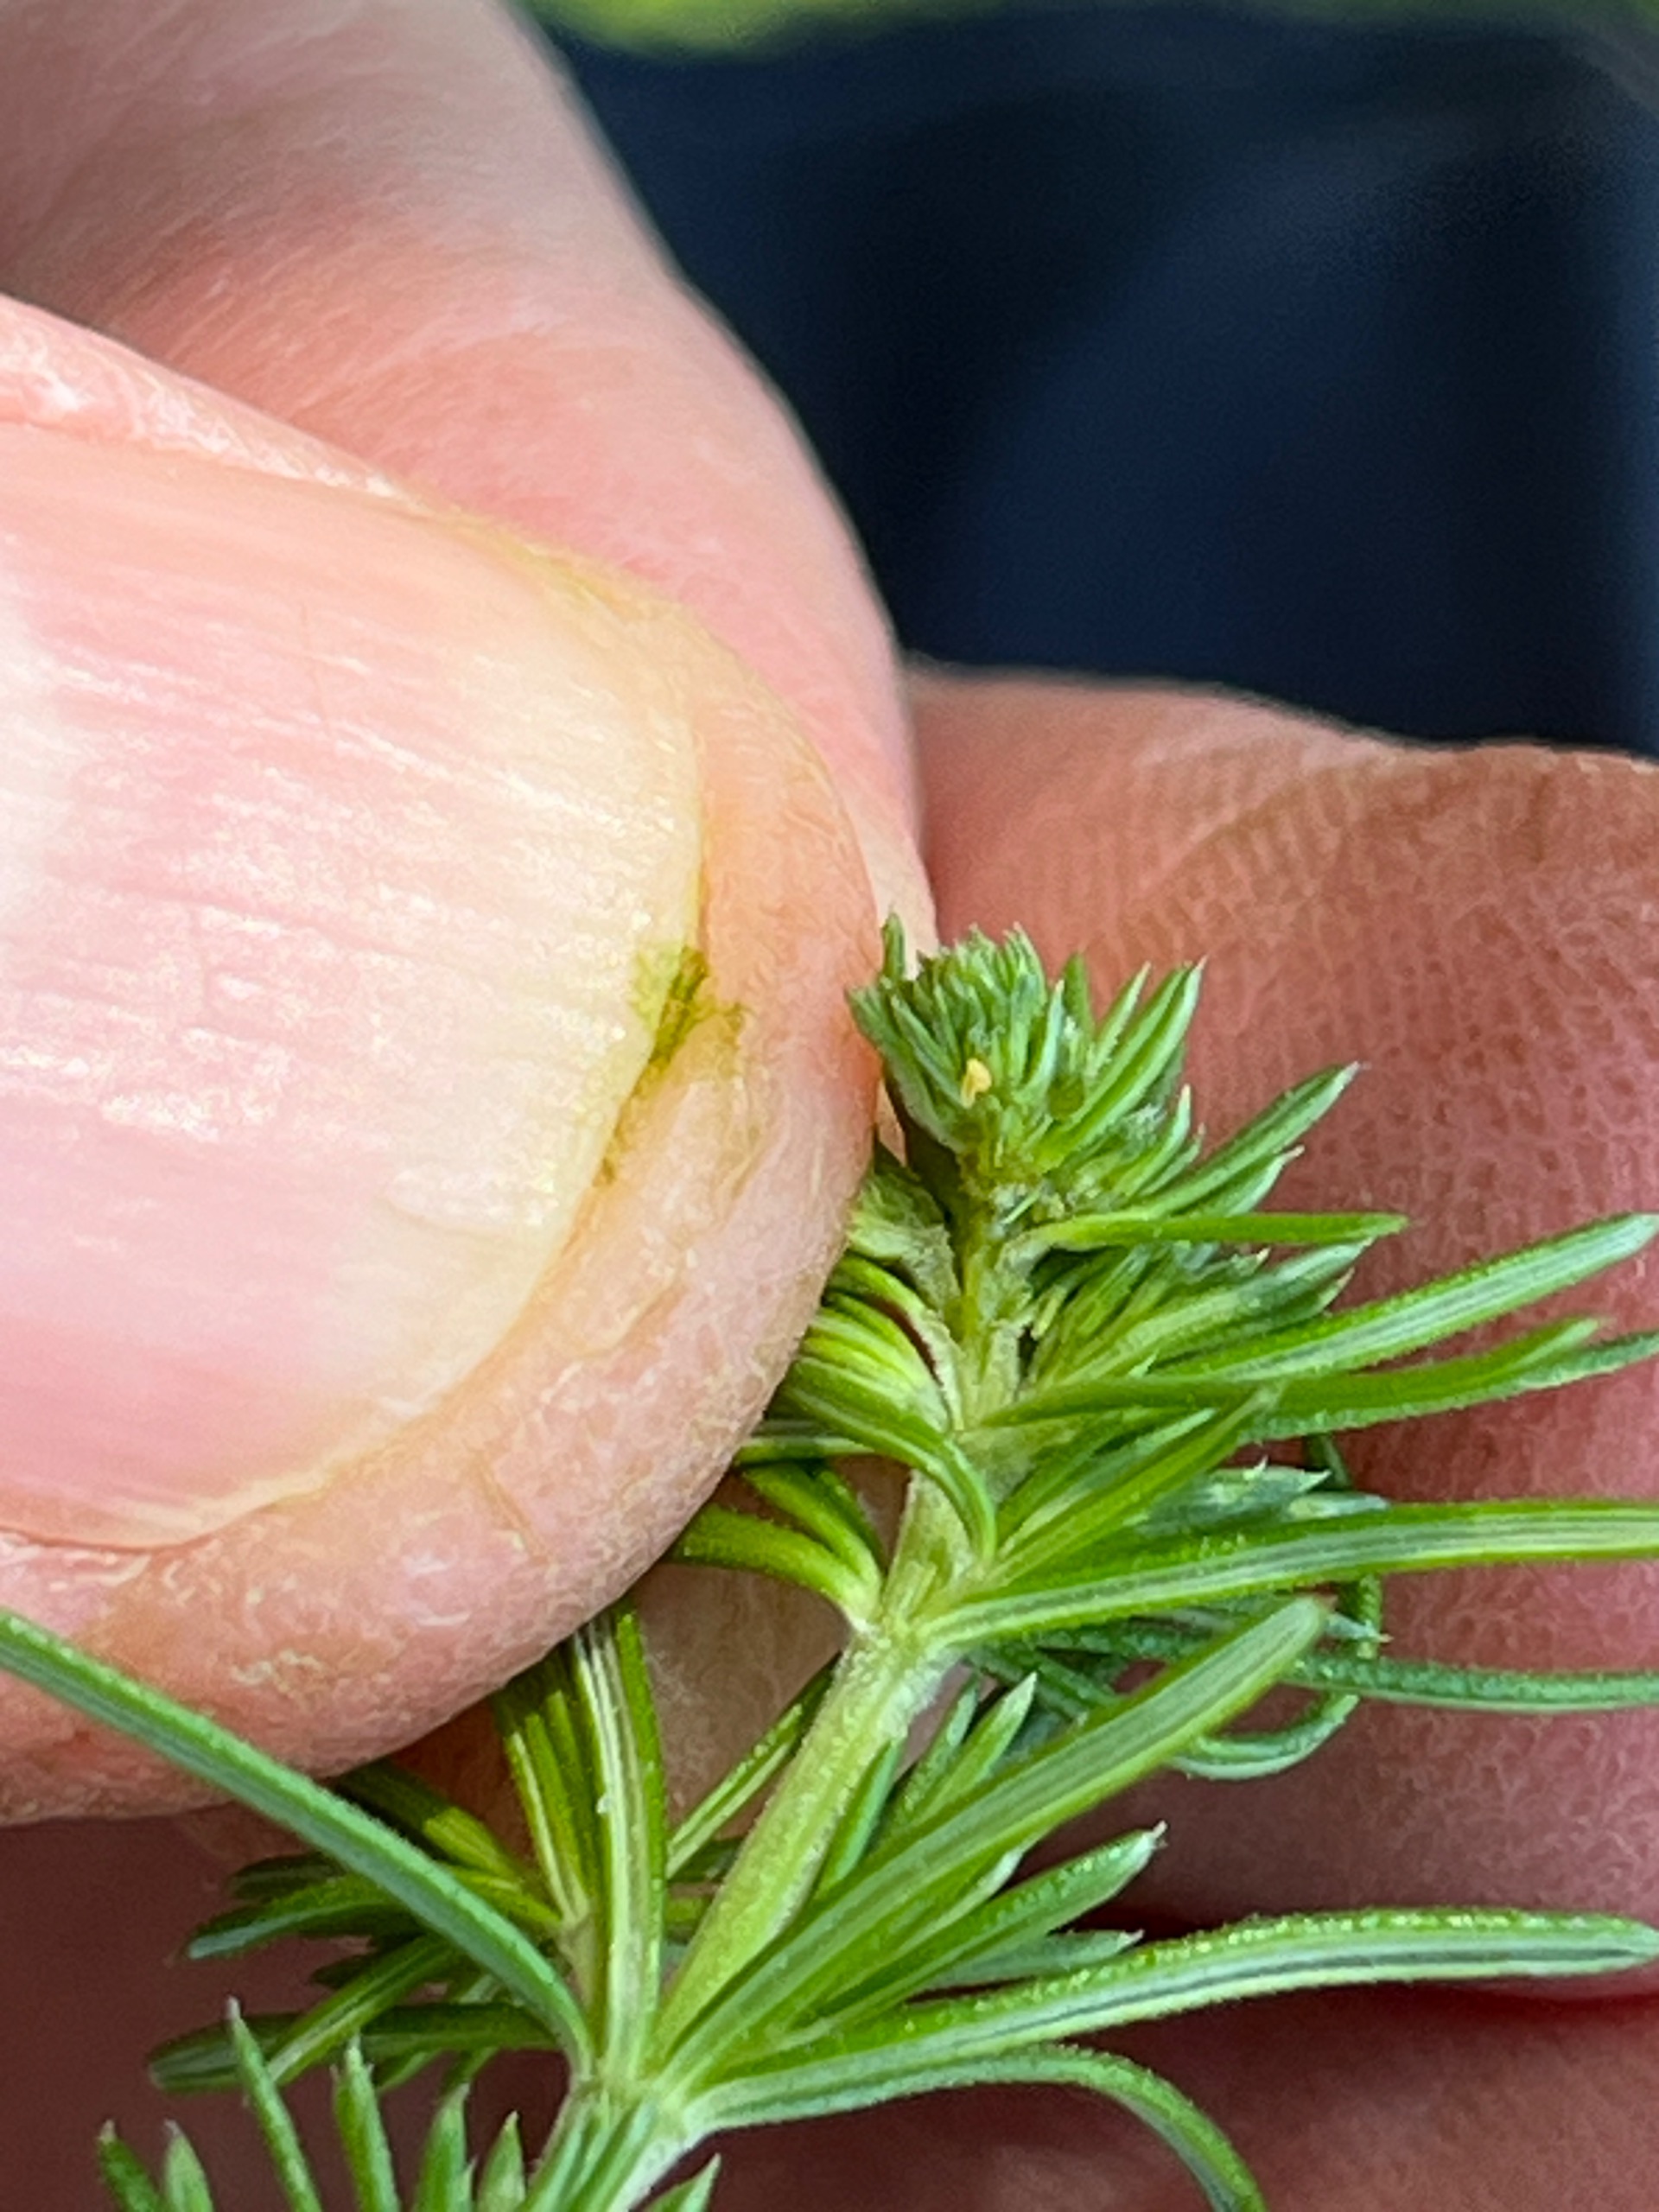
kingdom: Animalia
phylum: Arthropoda
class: Insecta
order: Diptera
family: Cecidomyiidae
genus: Contarinia
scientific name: Contarinia perplicata
